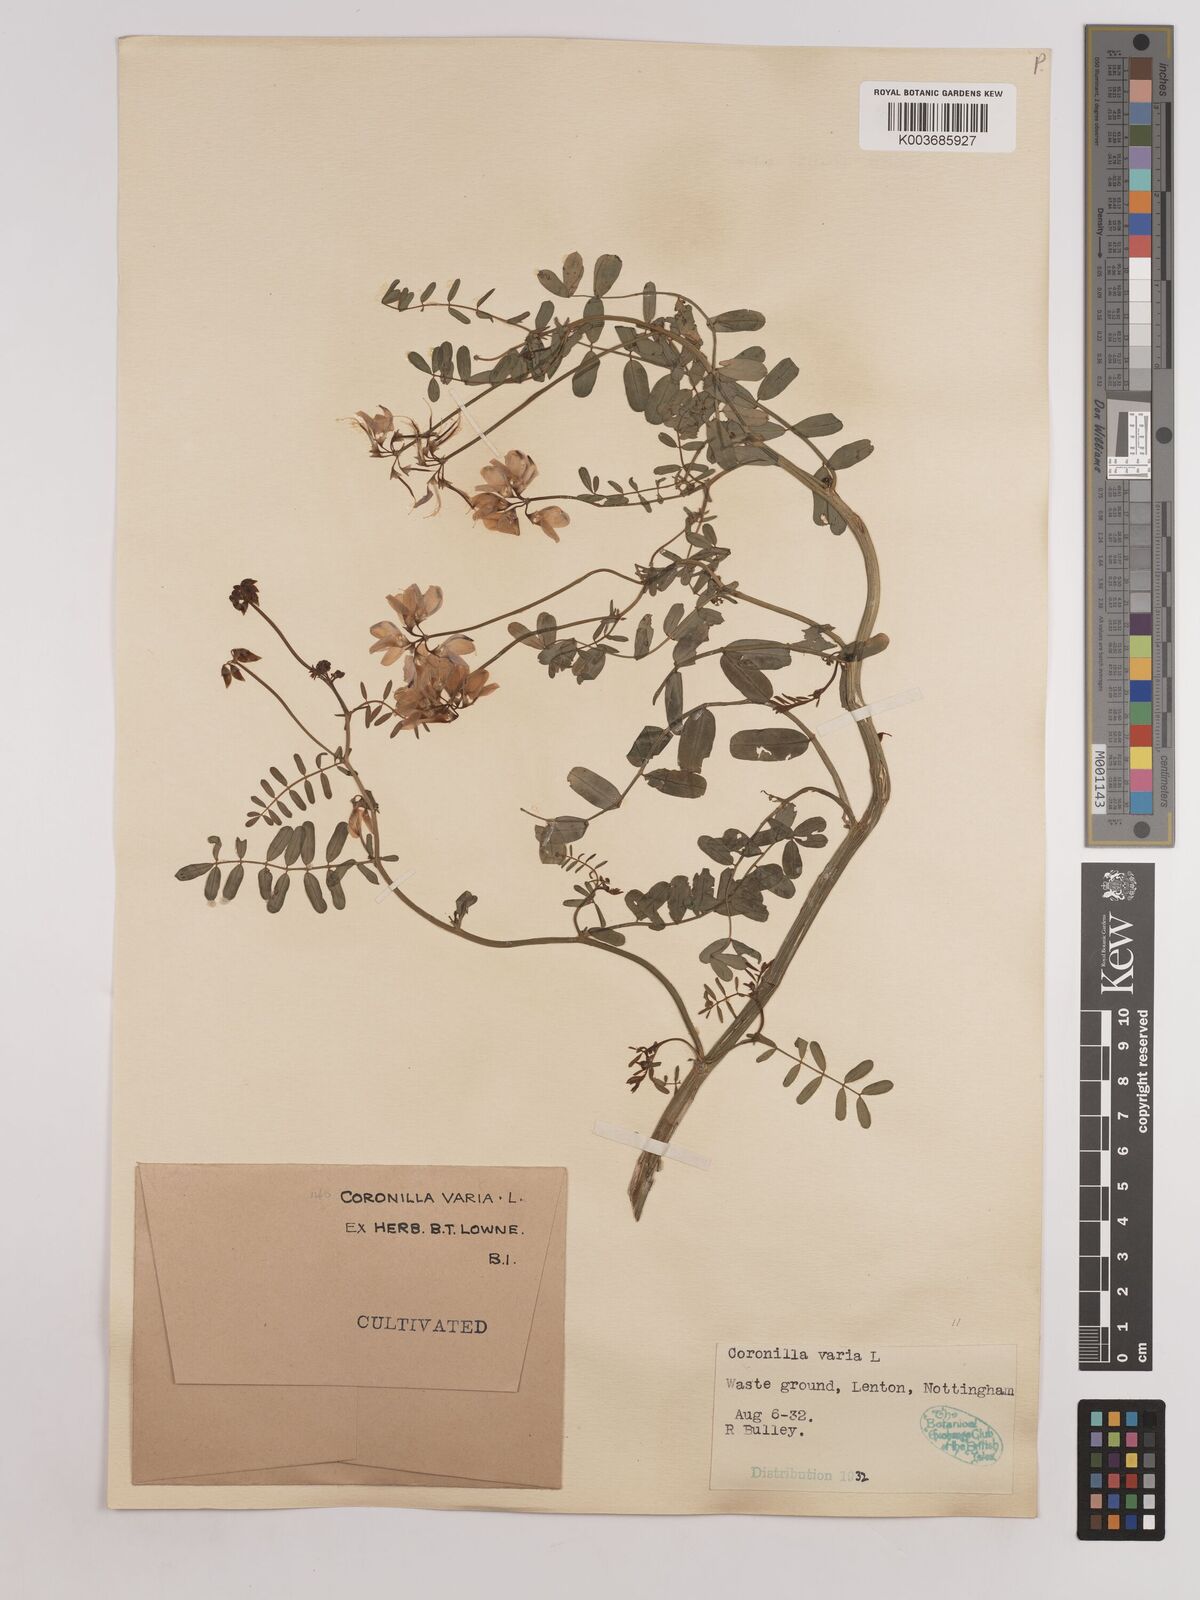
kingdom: Plantae
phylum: Tracheophyta
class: Magnoliopsida
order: Fabales
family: Fabaceae
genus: Coronilla
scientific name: Coronilla varia
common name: Crownvetch
